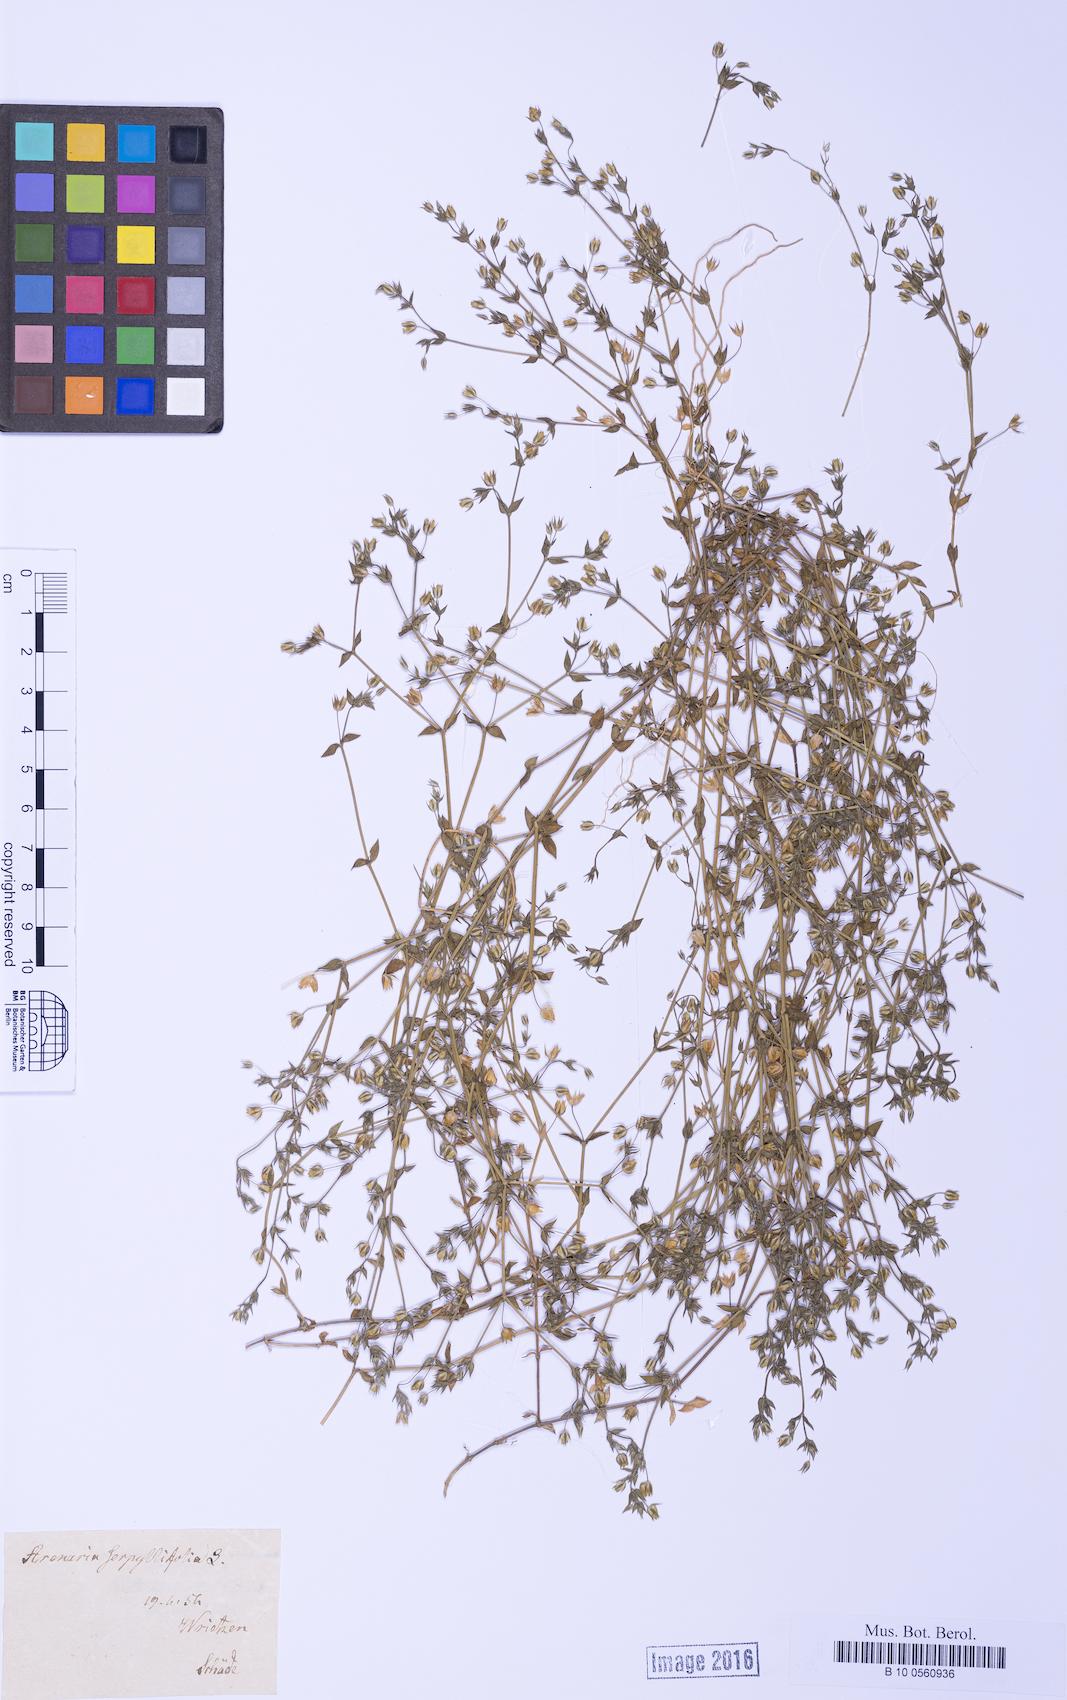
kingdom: Plantae
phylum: Tracheophyta
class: Magnoliopsida
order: Caryophyllales
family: Caryophyllaceae
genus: Arenaria
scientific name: Arenaria serpyllifolia
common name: Thyme-leaved sandwort
